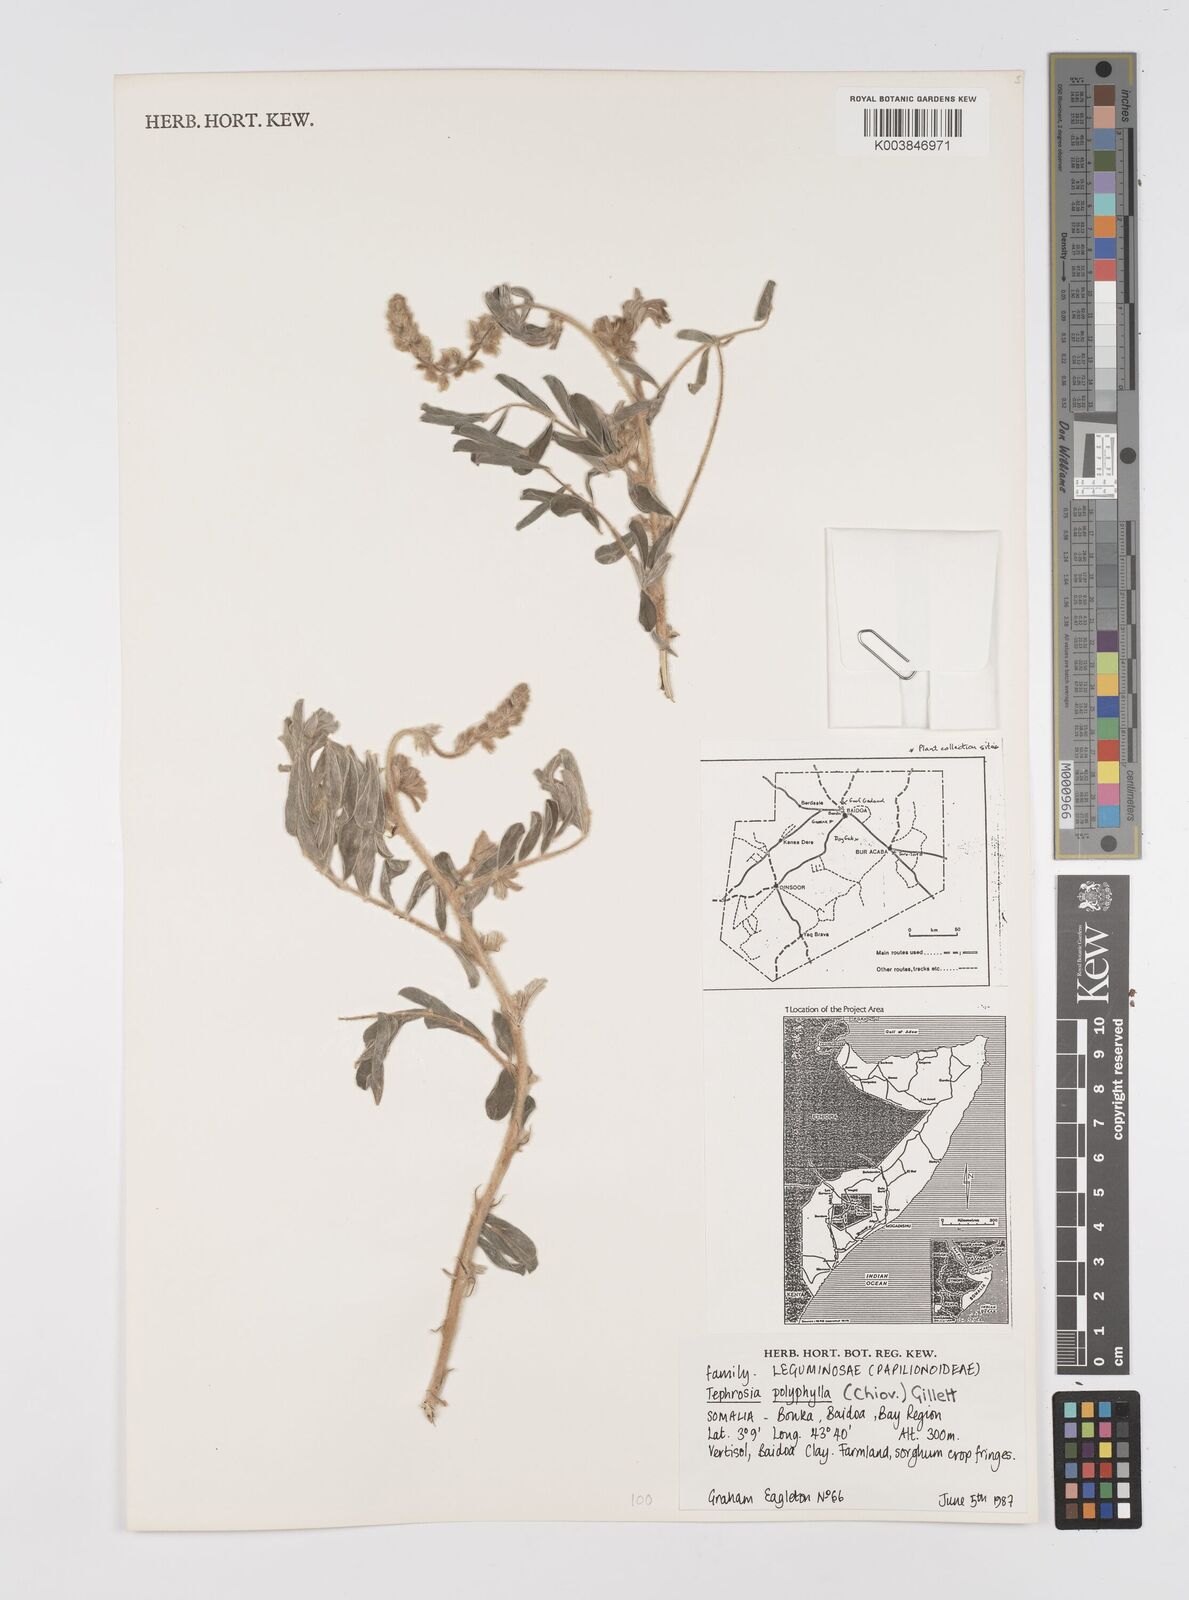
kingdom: Plantae
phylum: Tracheophyta
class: Magnoliopsida
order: Fabales
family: Fabaceae
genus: Tephrosia
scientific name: Tephrosia polyphylla
